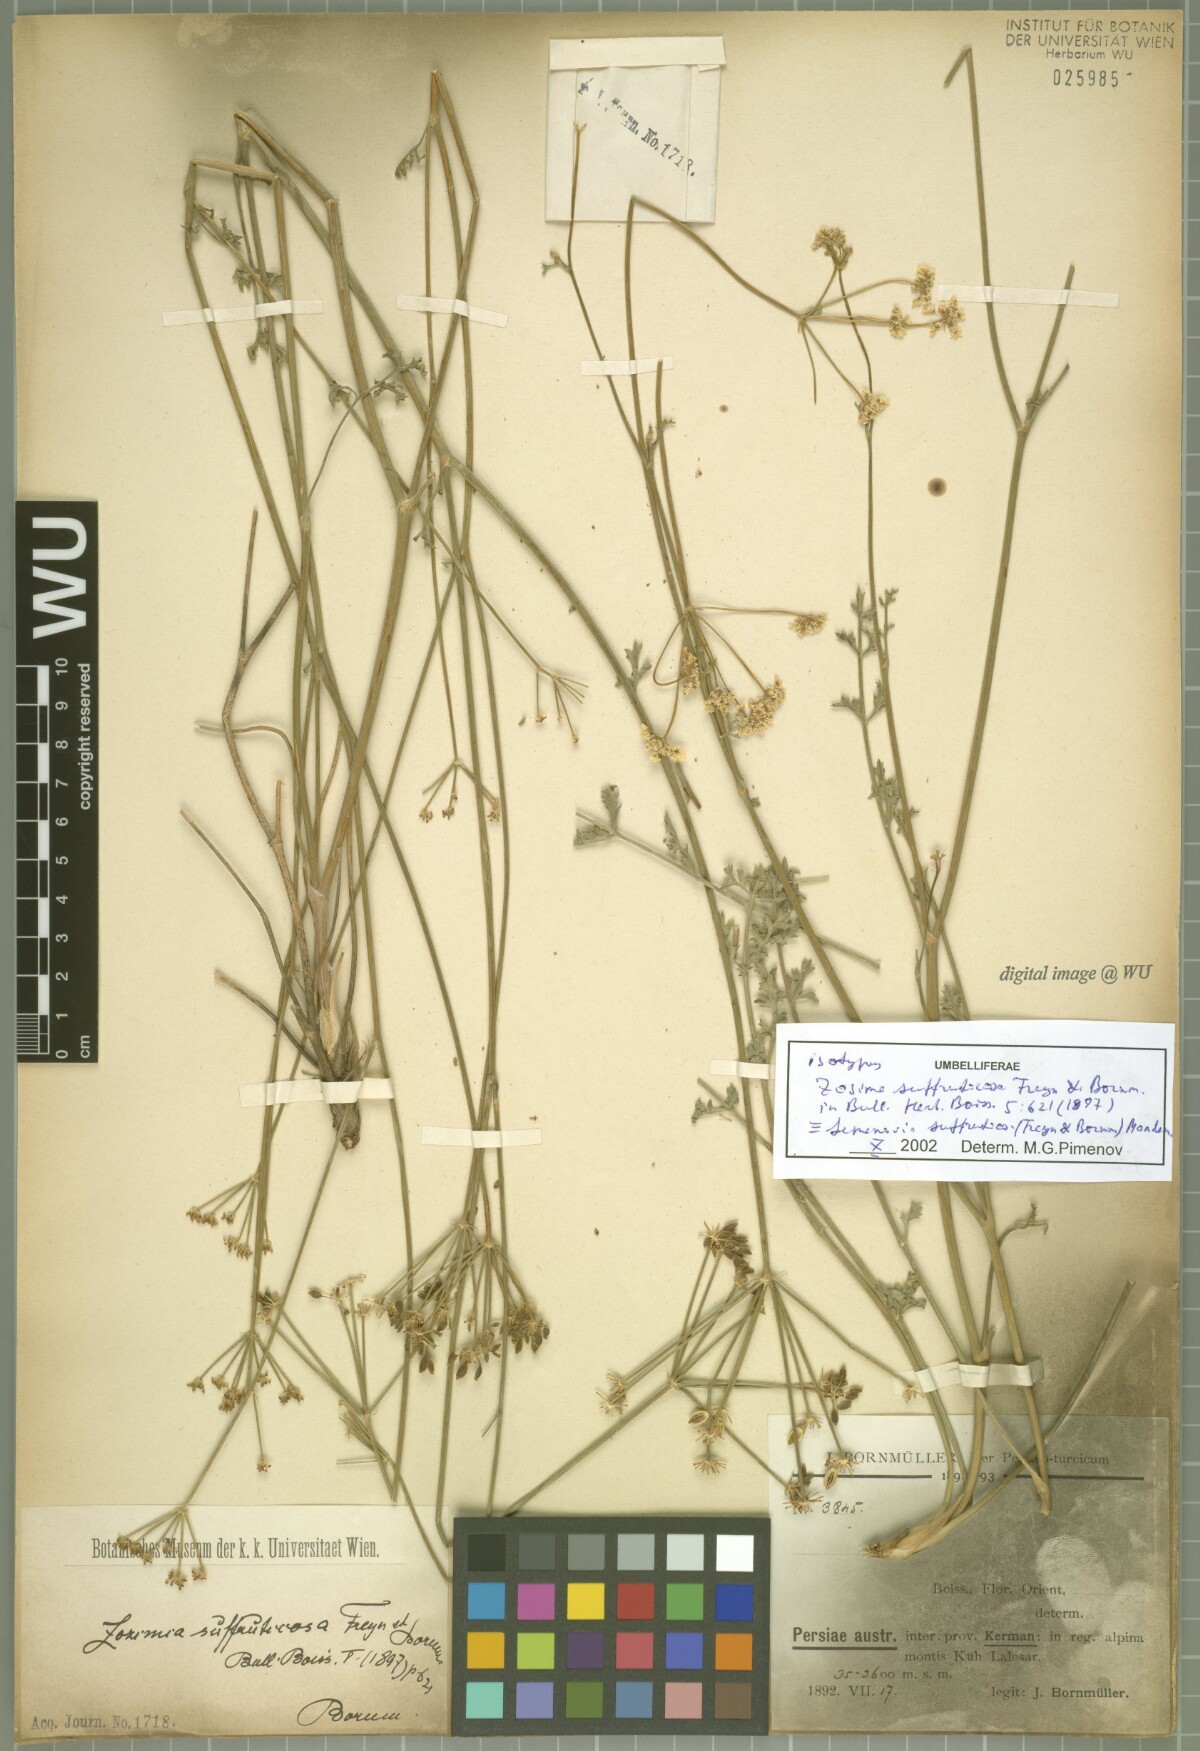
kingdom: Plantae
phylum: Tracheophyta
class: Magnoliopsida
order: Apiales
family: Apiaceae
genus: Semenovia
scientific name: Semenovia suffruticosa
